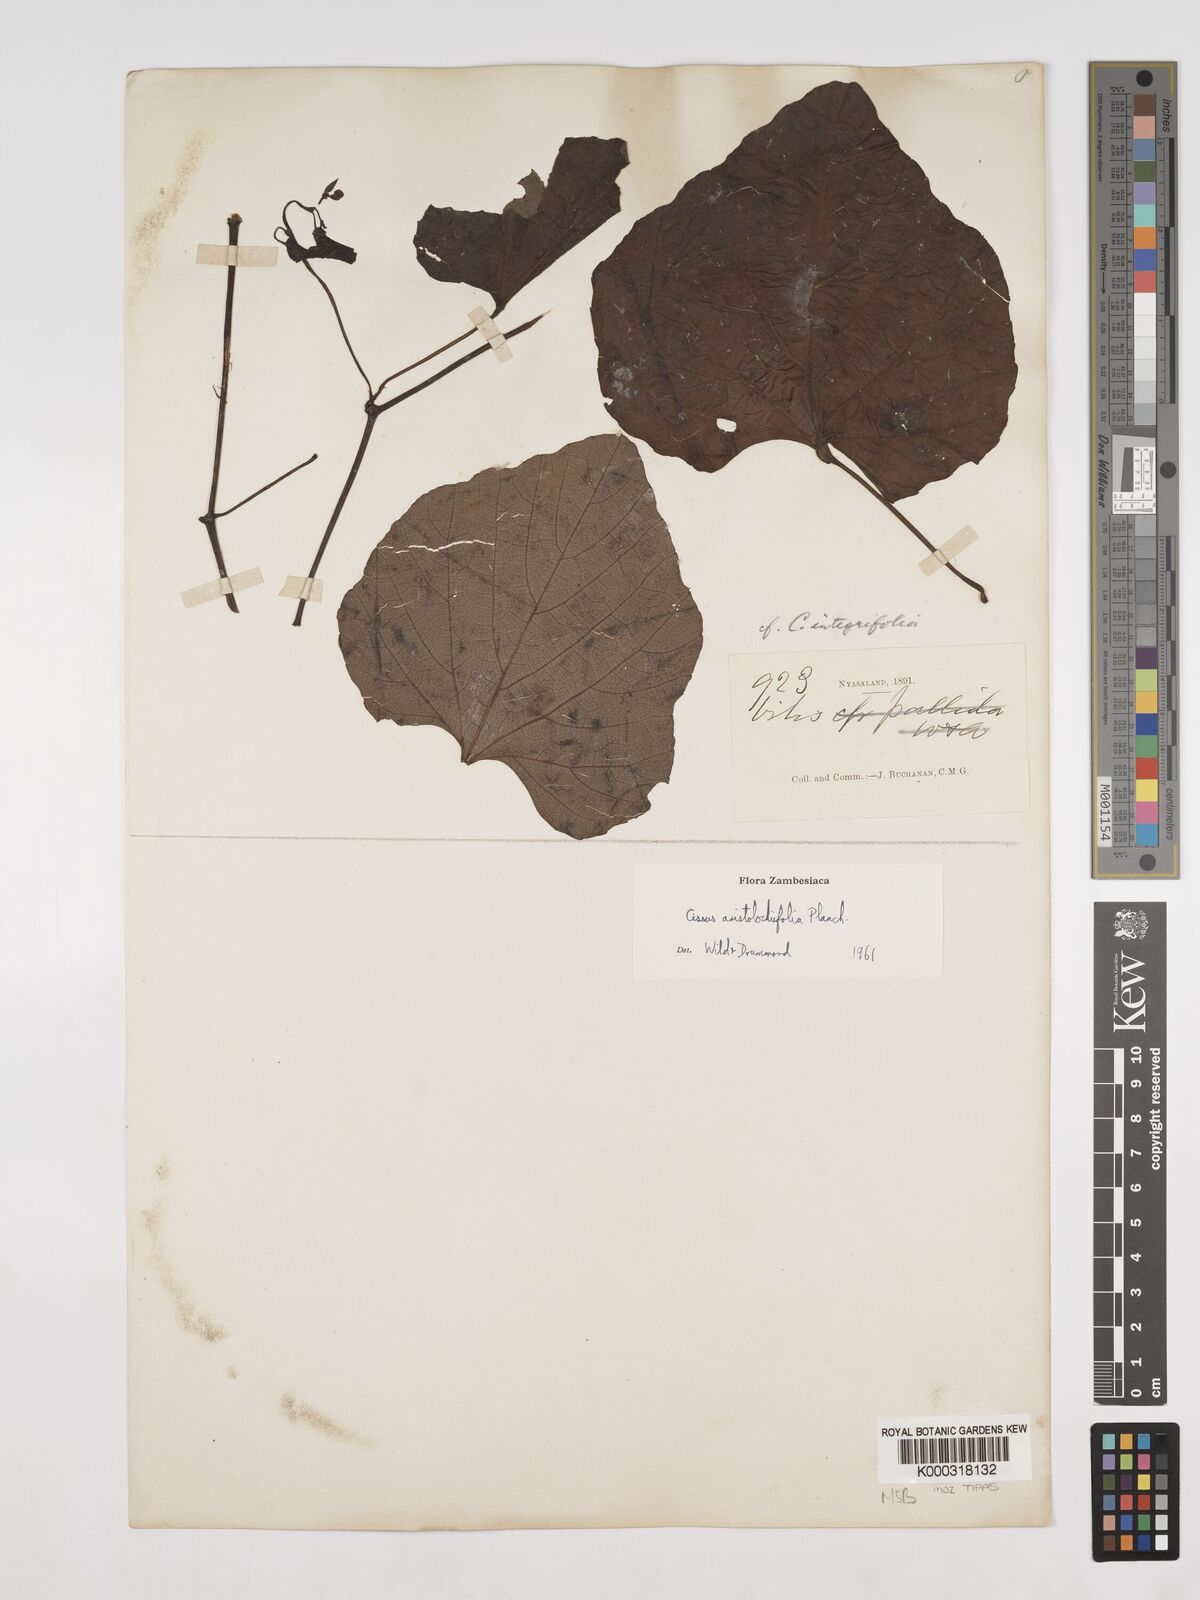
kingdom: Plantae
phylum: Tracheophyta
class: Magnoliopsida
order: Vitales
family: Vitaceae
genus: Cissus
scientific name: Cissus aristolochiifolia
